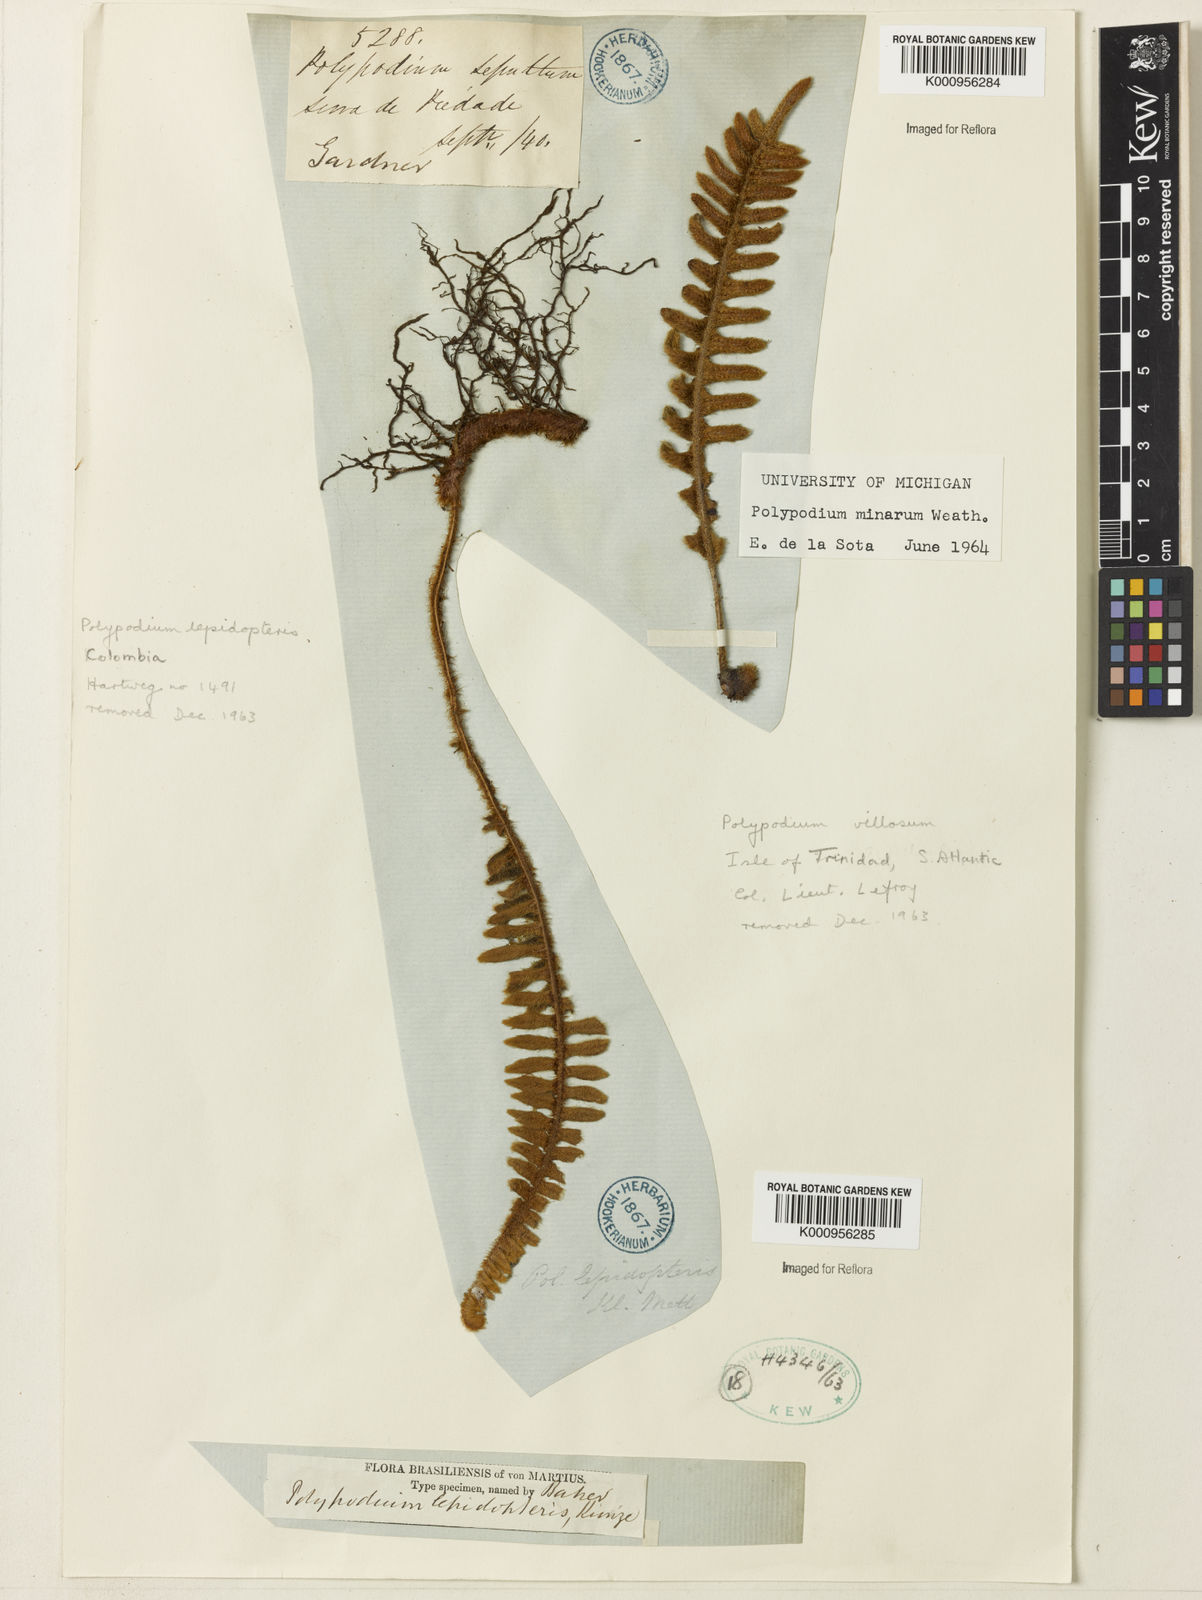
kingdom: Plantae
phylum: Tracheophyta
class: Polypodiopsida
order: Polypodiales
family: Polypodiaceae
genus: Pleopeltis
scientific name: Pleopeltis minarum
